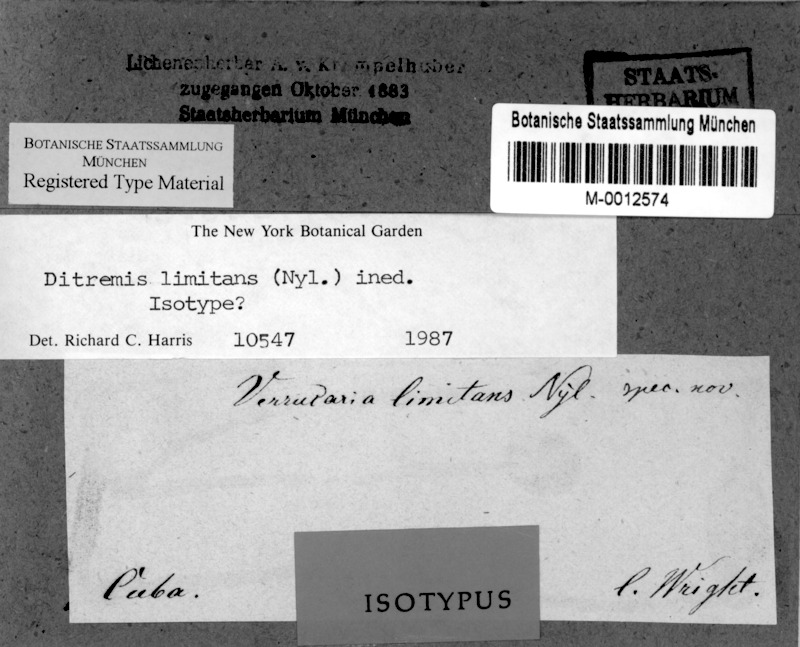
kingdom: Fungi
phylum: Ascomycota
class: Dothideomycetes
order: Monoblastiales
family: Monoblastiaceae
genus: Anisomeridium
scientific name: Anisomeridium Ditremis limitans
